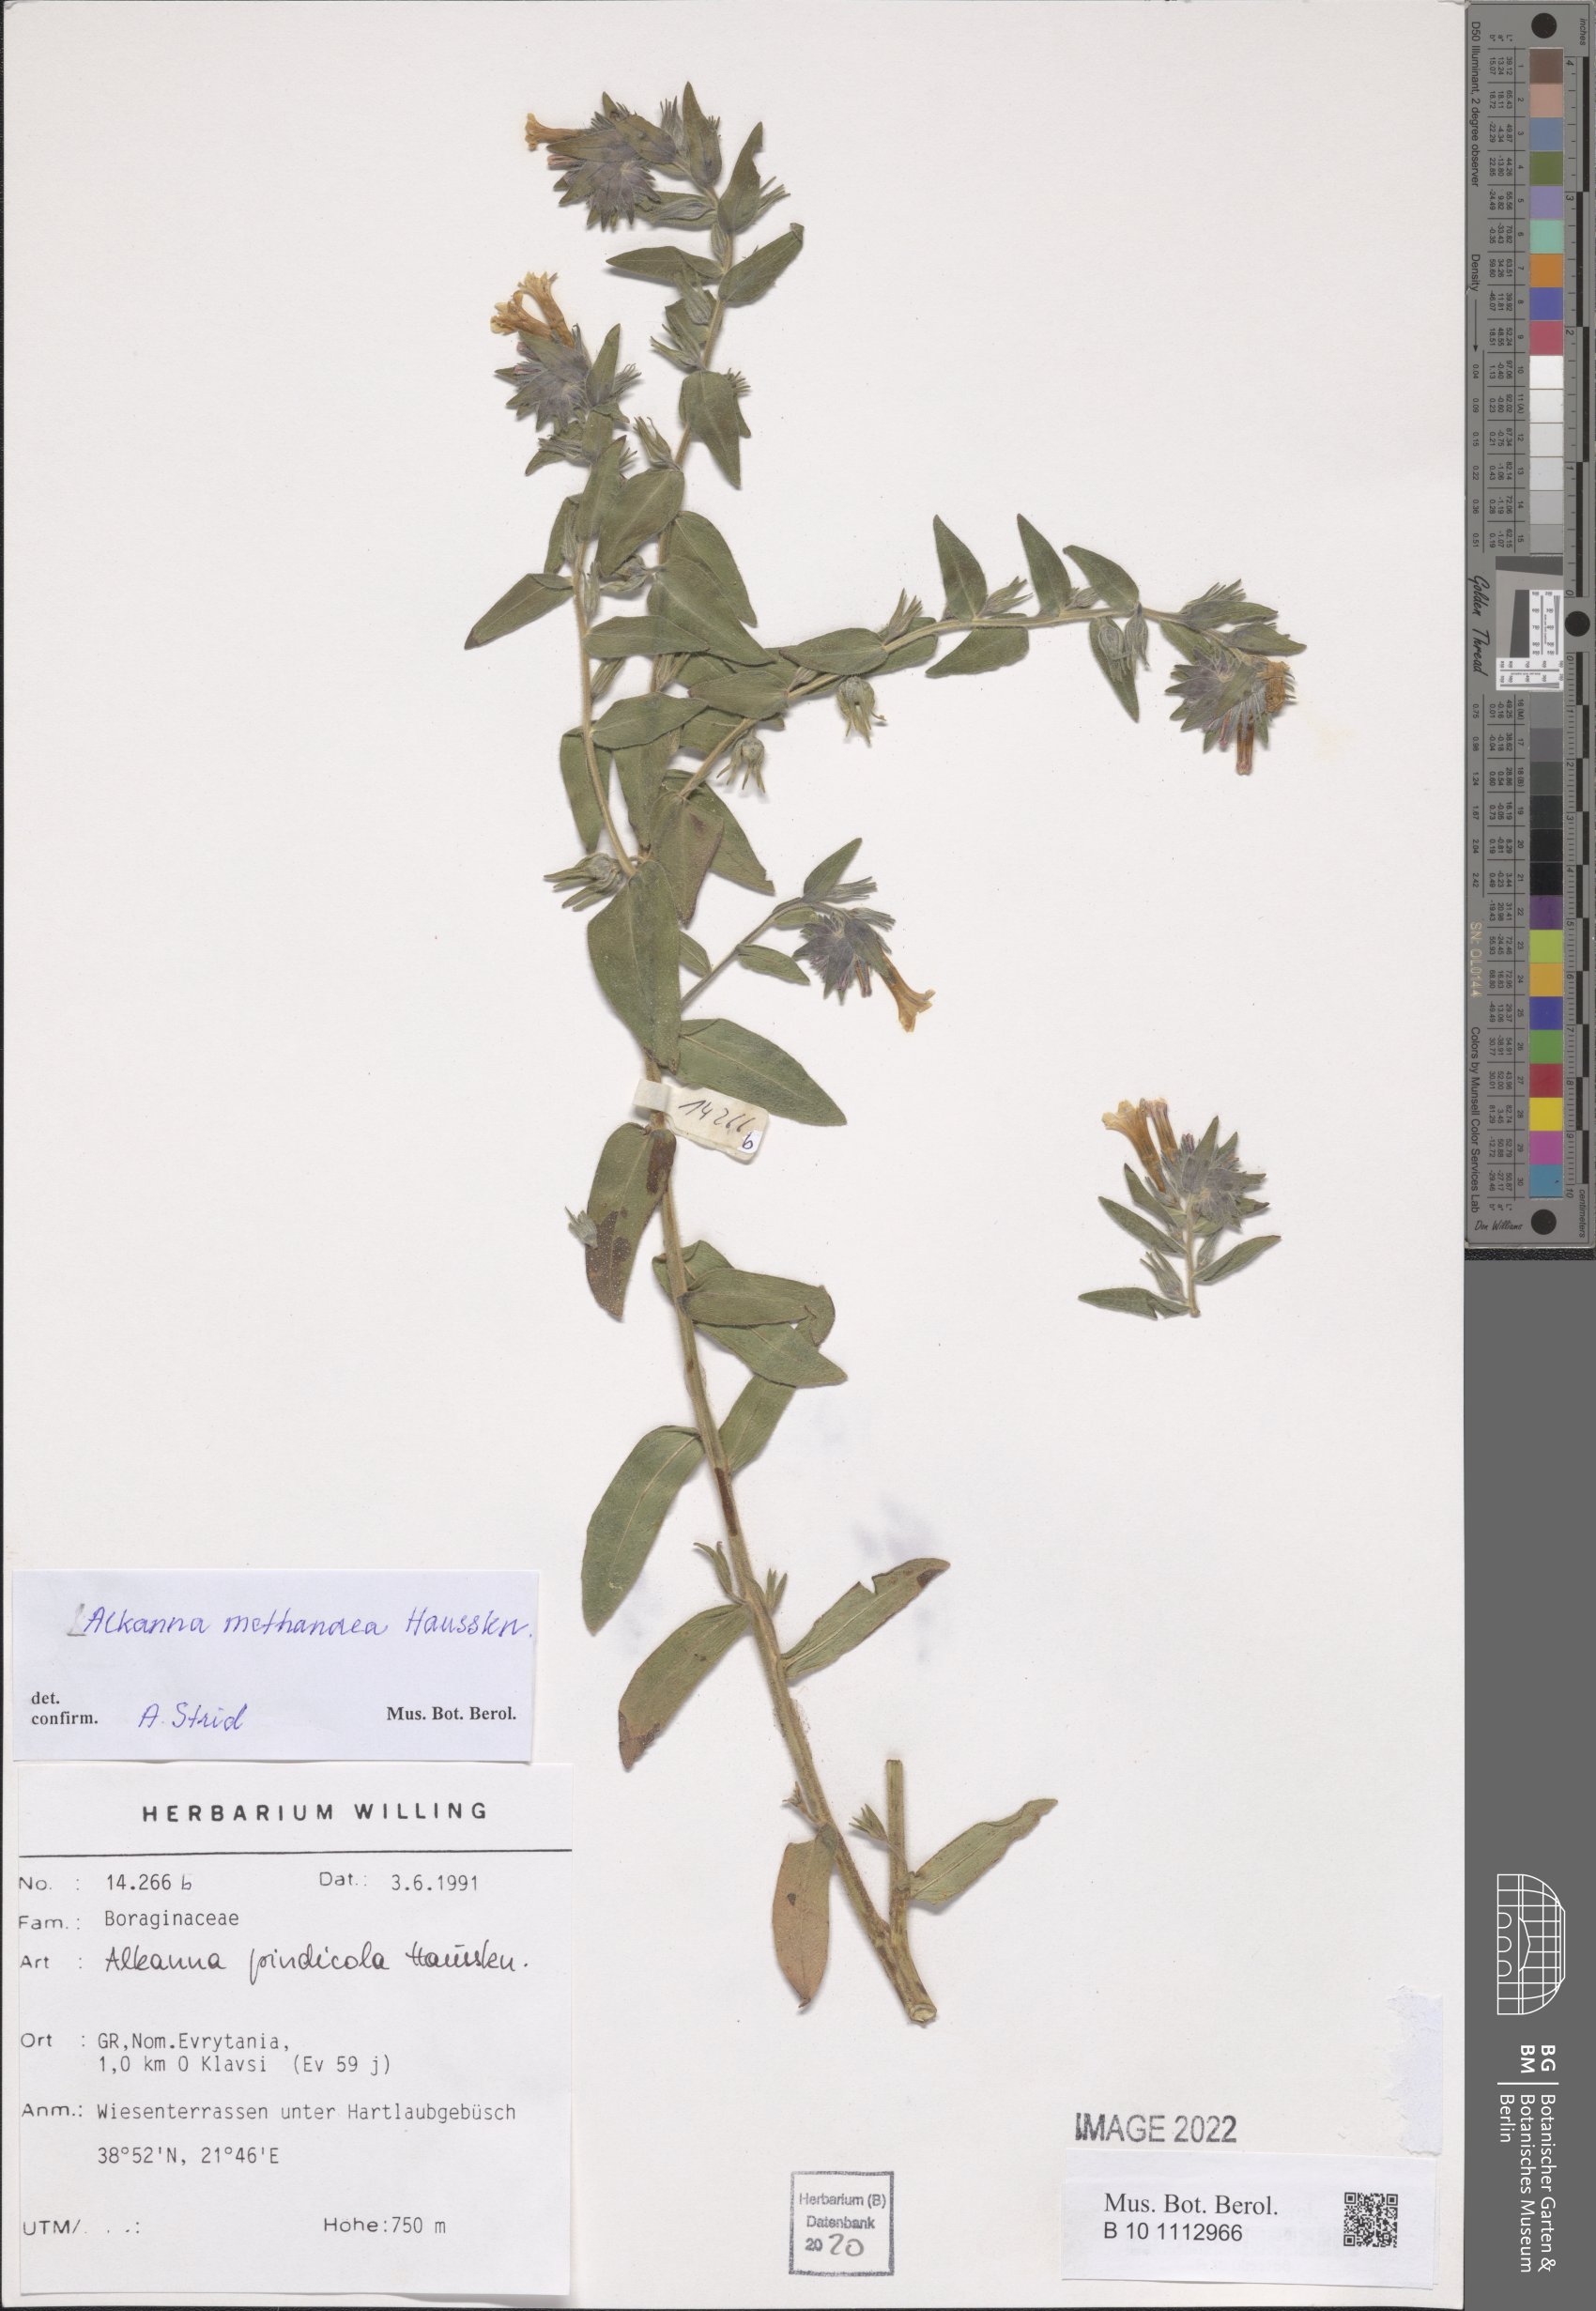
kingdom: Plantae
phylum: Tracheophyta
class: Magnoliopsida
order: Boraginales
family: Boraginaceae
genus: Alkanna
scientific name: Alkanna methanaea
